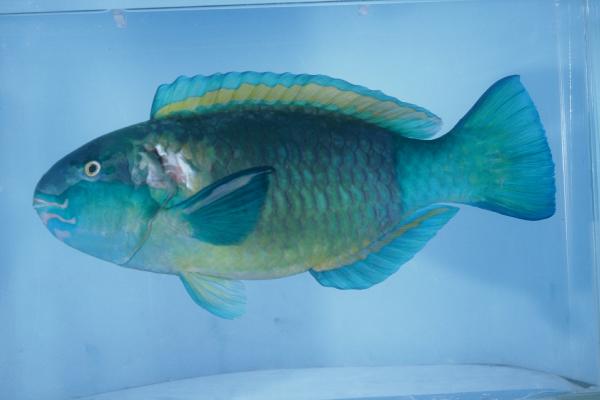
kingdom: Animalia
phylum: Chordata
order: Perciformes
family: Scaridae
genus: Chlorurus
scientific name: Chlorurus sordidus
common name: Bullethead parrotfish
